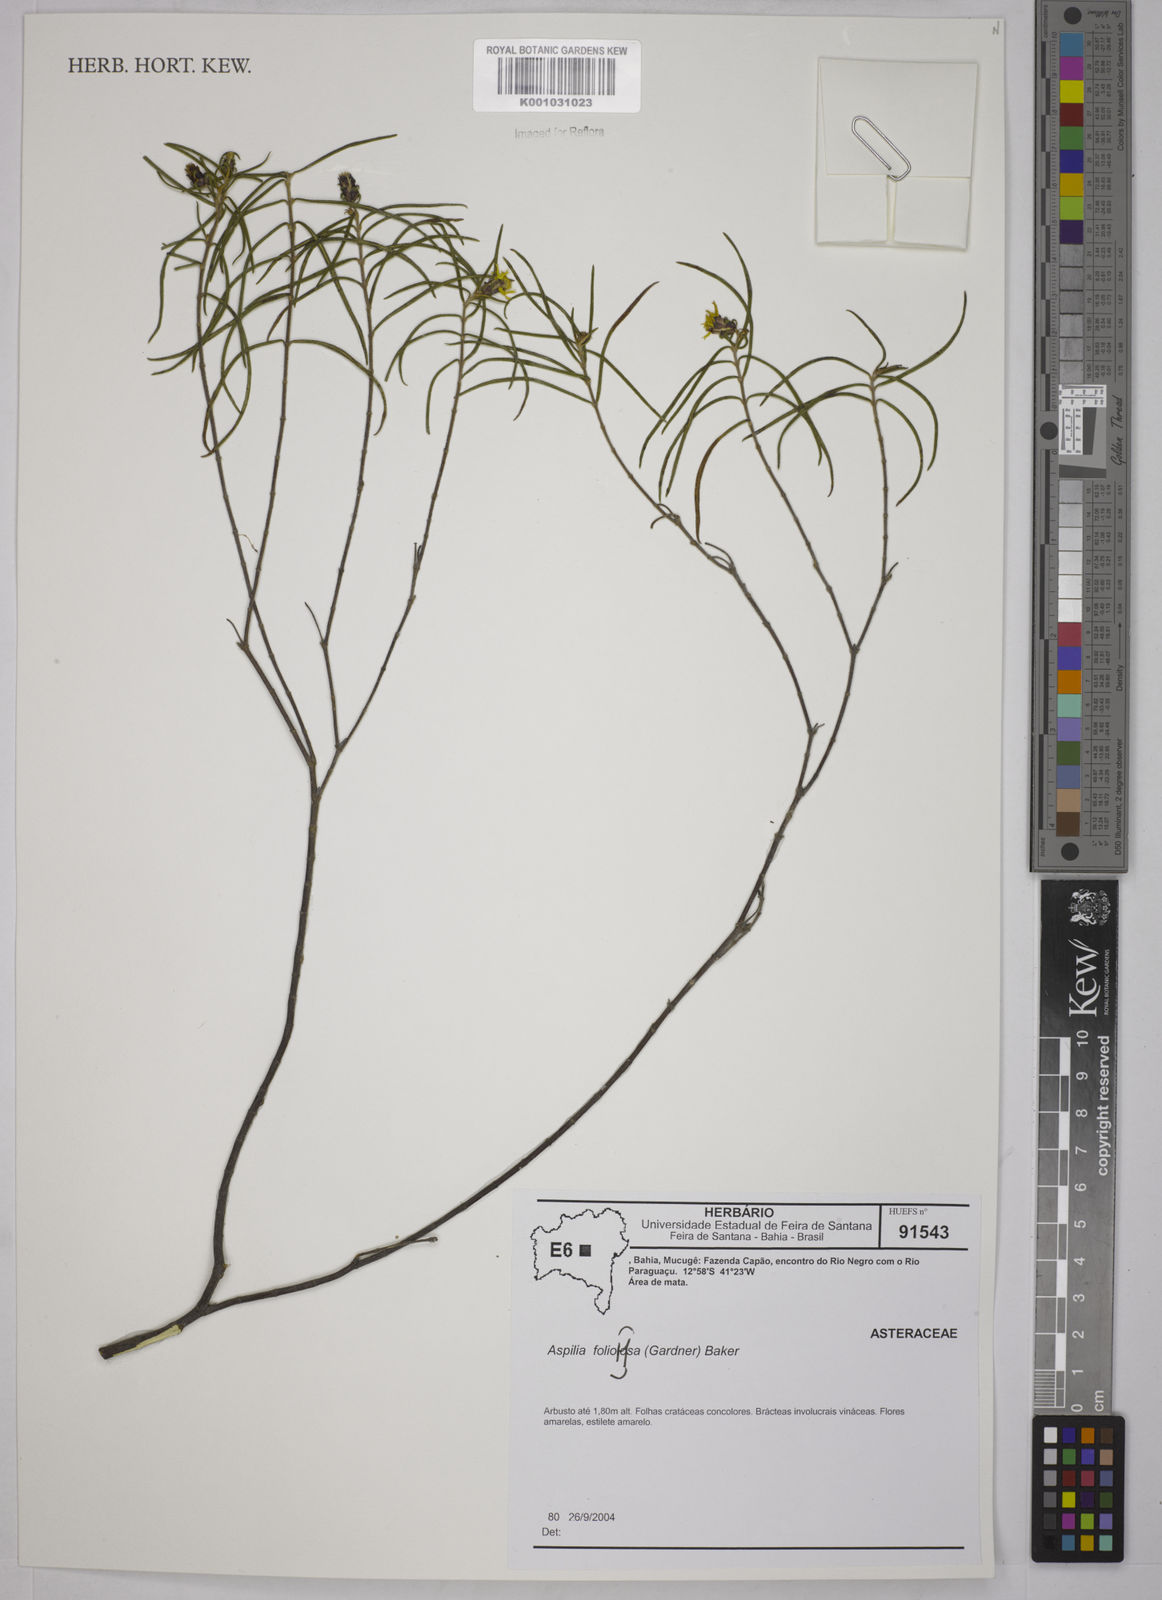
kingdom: Plantae
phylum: Tracheophyta
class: Magnoliopsida
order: Asterales
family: Asteraceae
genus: Aspilia
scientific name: Aspilia
